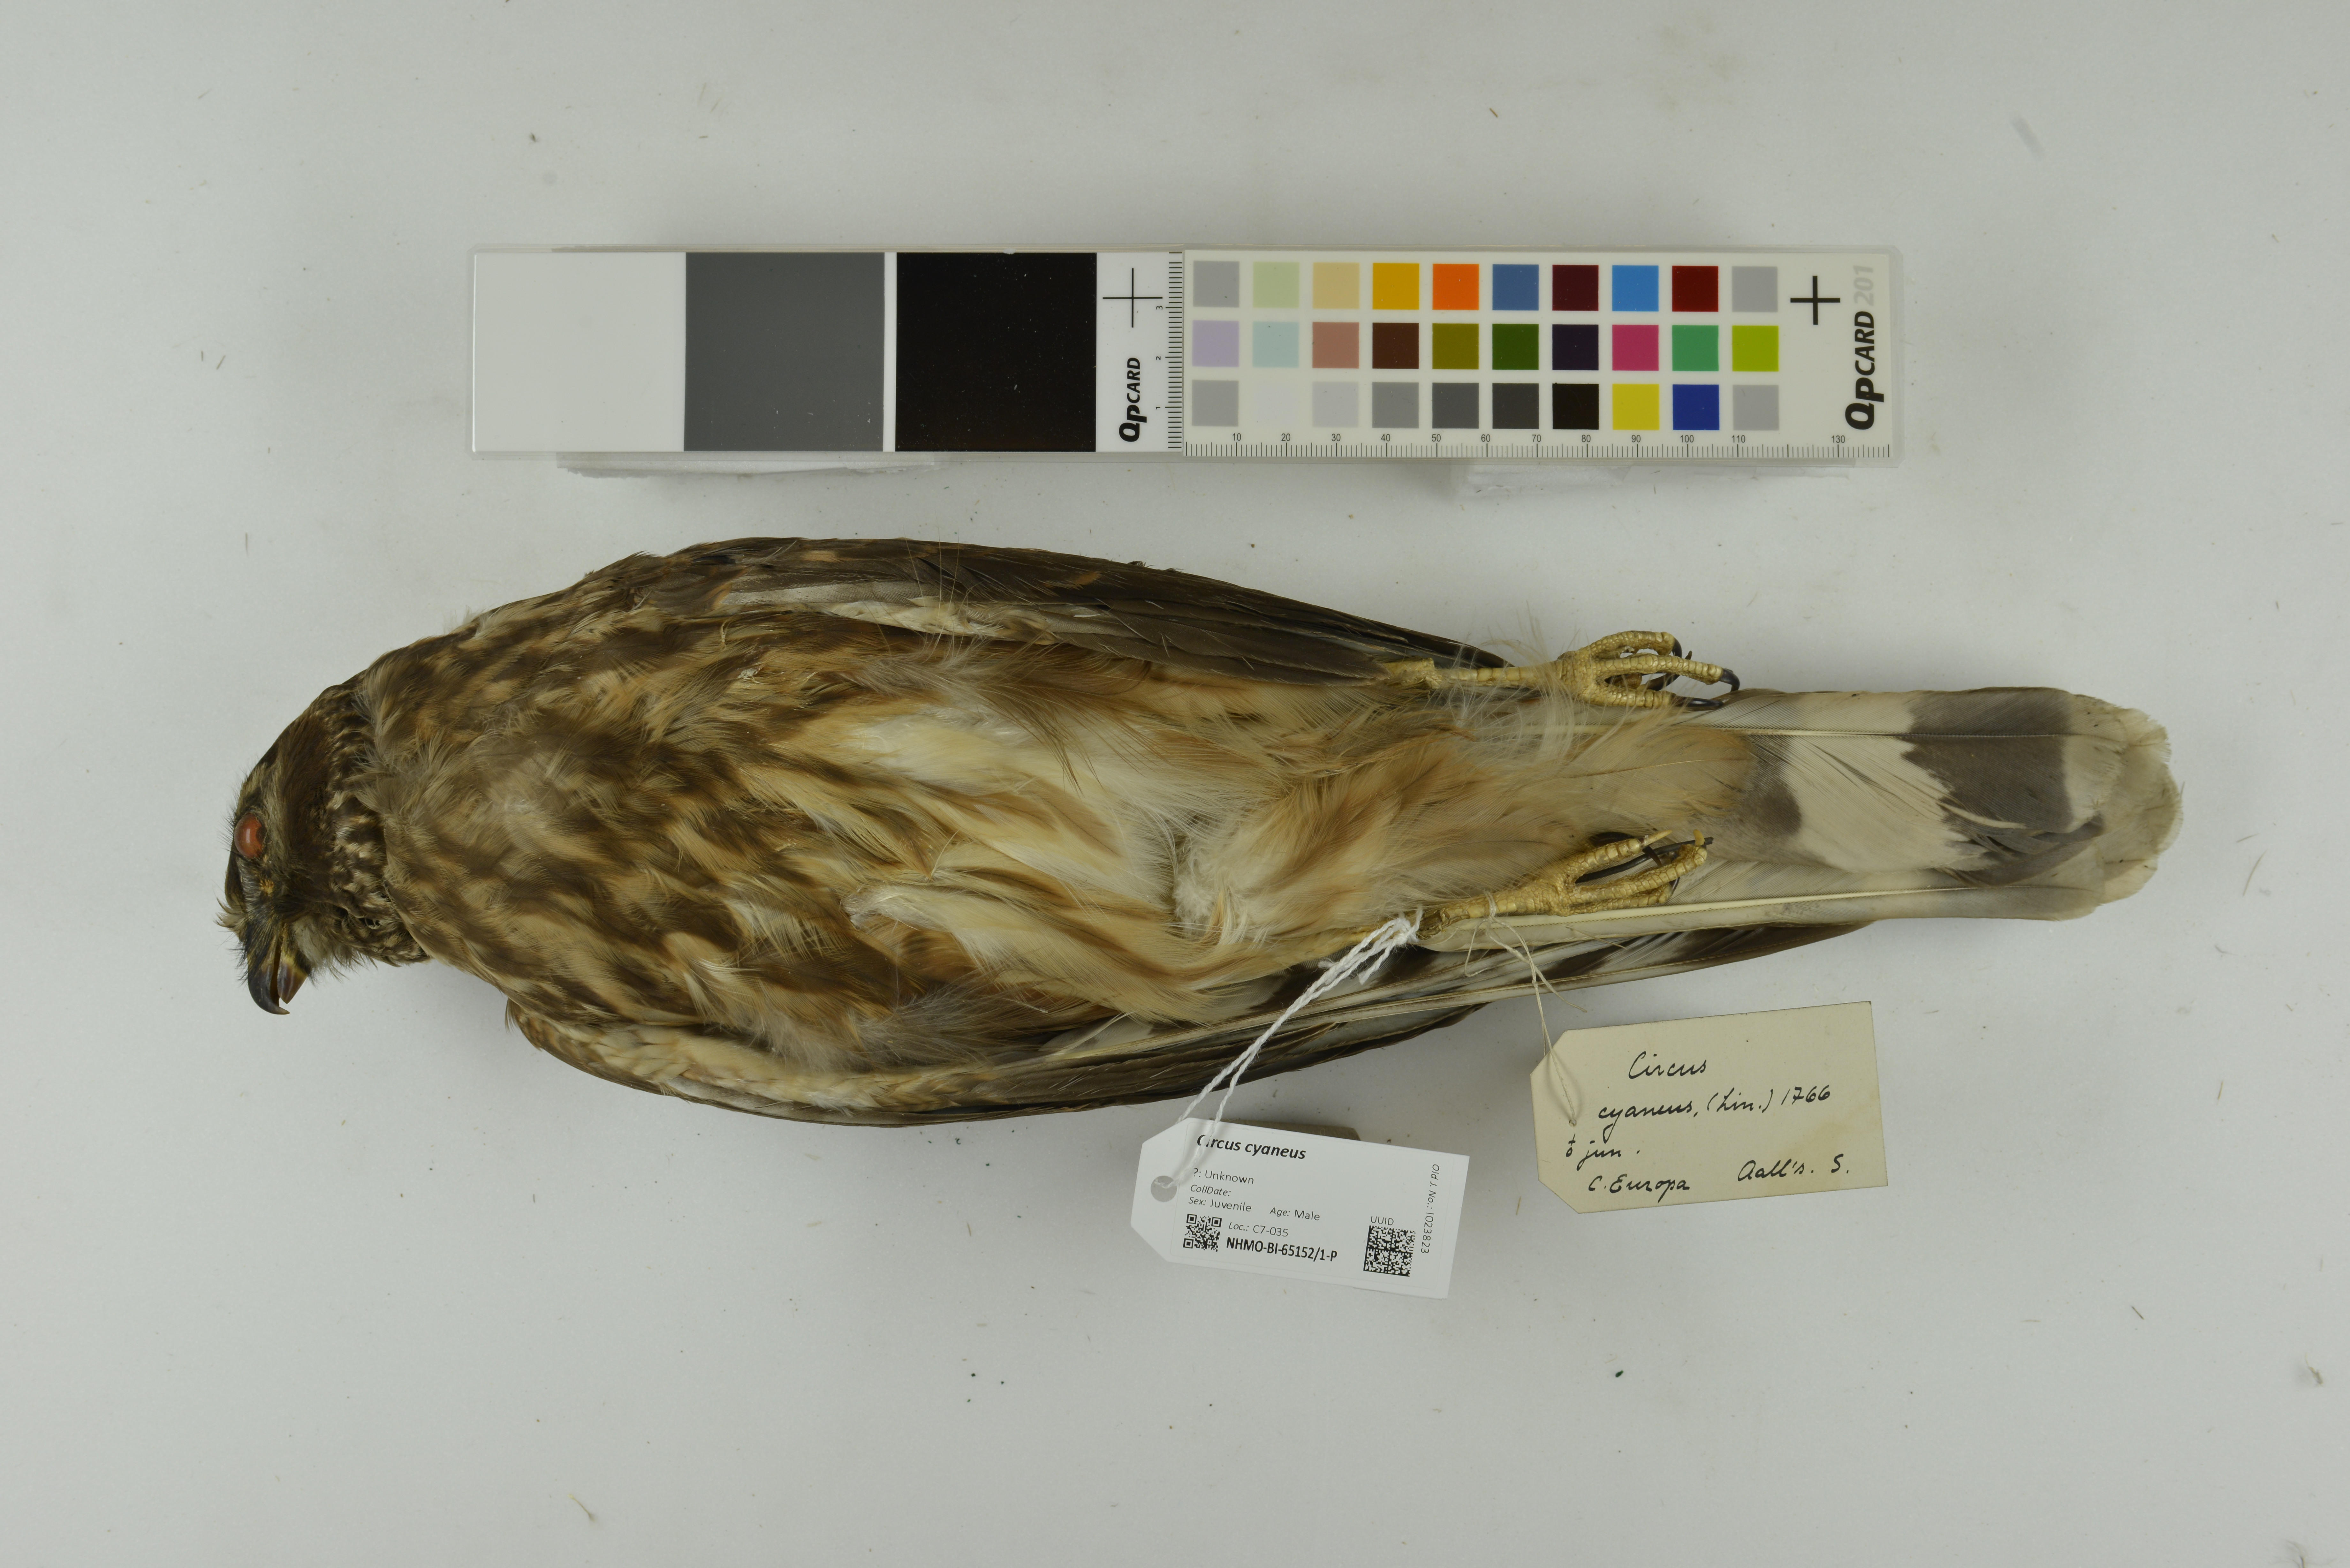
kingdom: Animalia
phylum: Chordata
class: Aves
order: Accipitriformes
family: Accipitridae
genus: Circus
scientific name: Circus cyaneus
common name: Hen harrier
